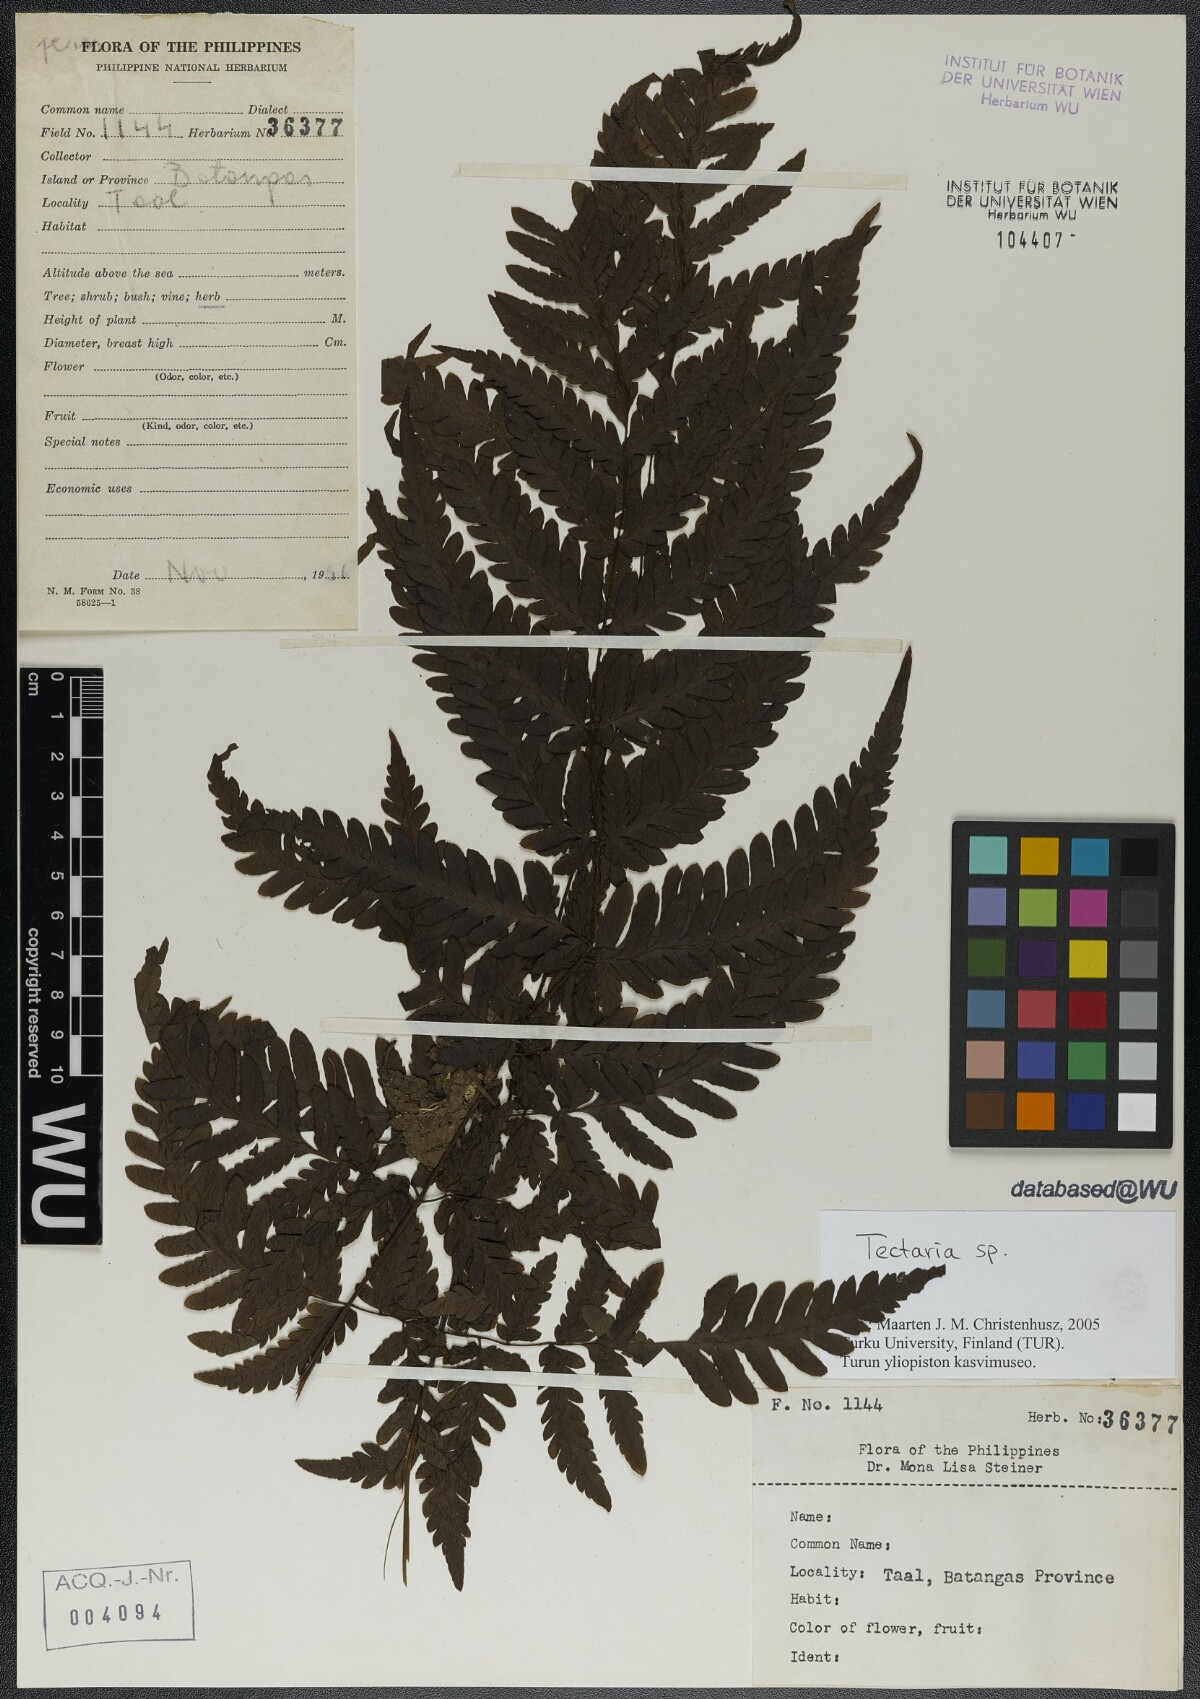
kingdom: Plantae
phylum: Tracheophyta
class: Polypodiopsida
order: Polypodiales
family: Tectariaceae
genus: Tectaria
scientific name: Tectaria
